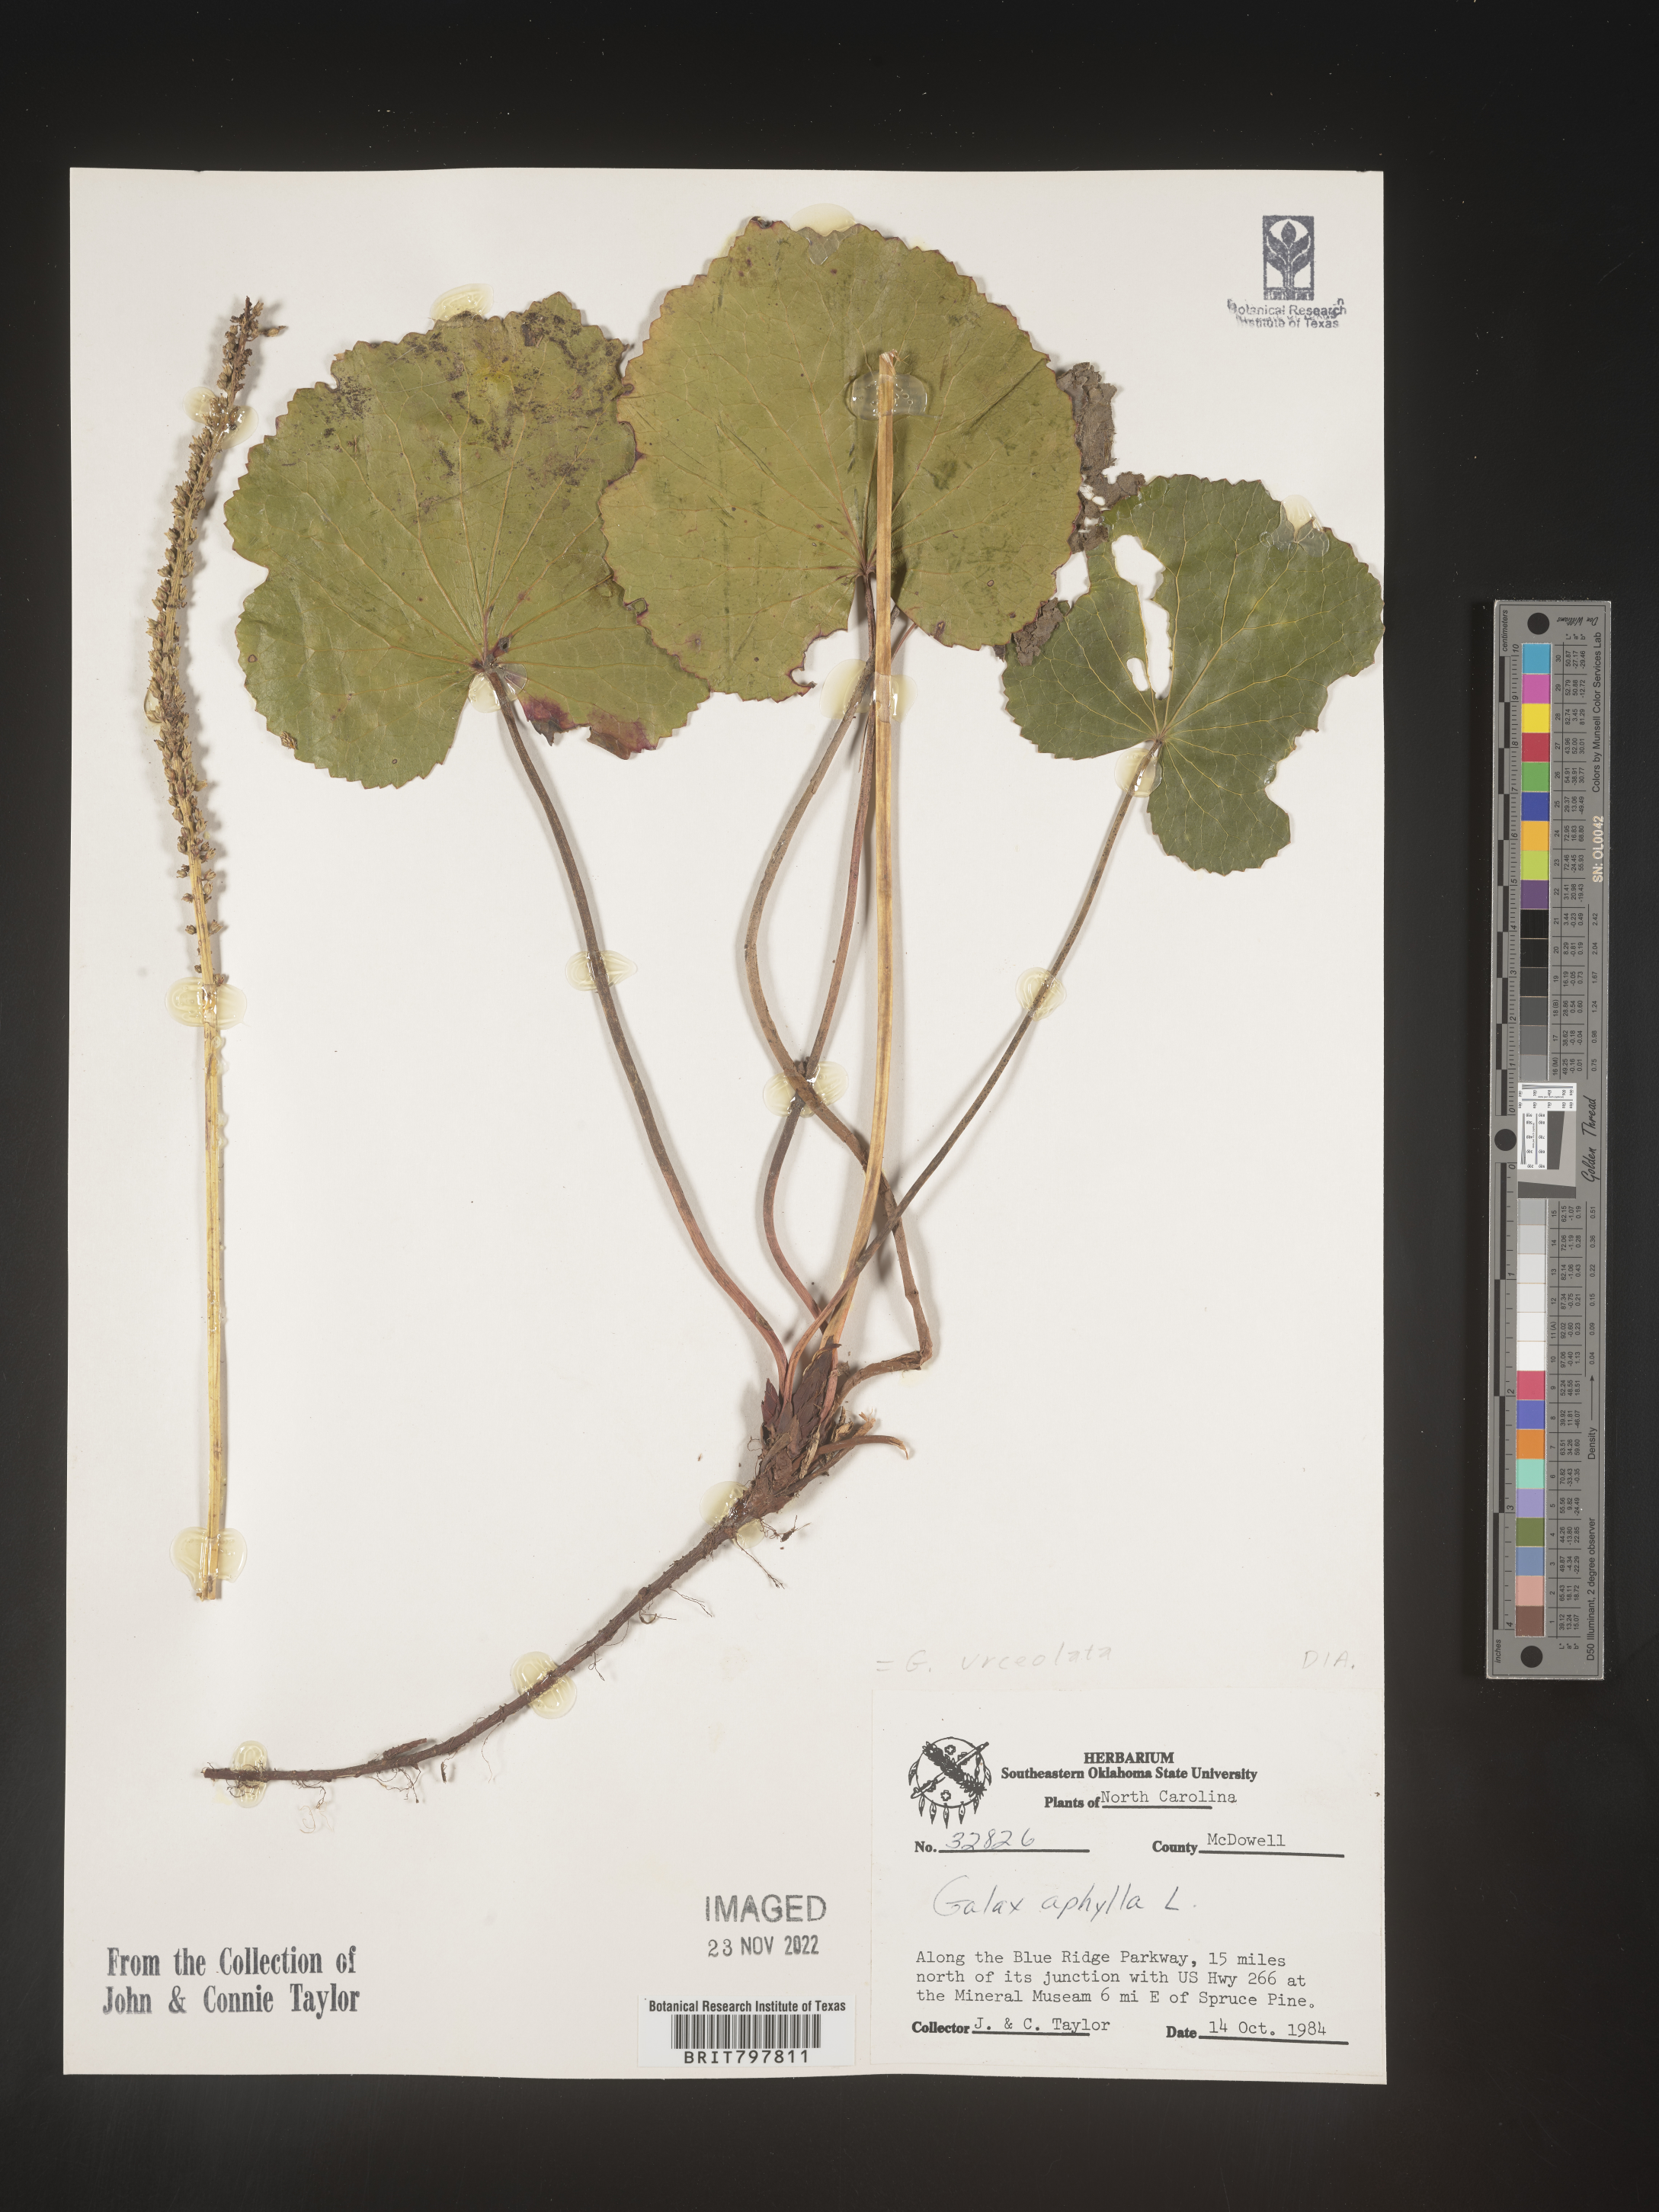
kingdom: Plantae
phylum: Tracheophyta
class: Magnoliopsida
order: Ericales
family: Diapensiaceae
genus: Galax
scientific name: Galax
